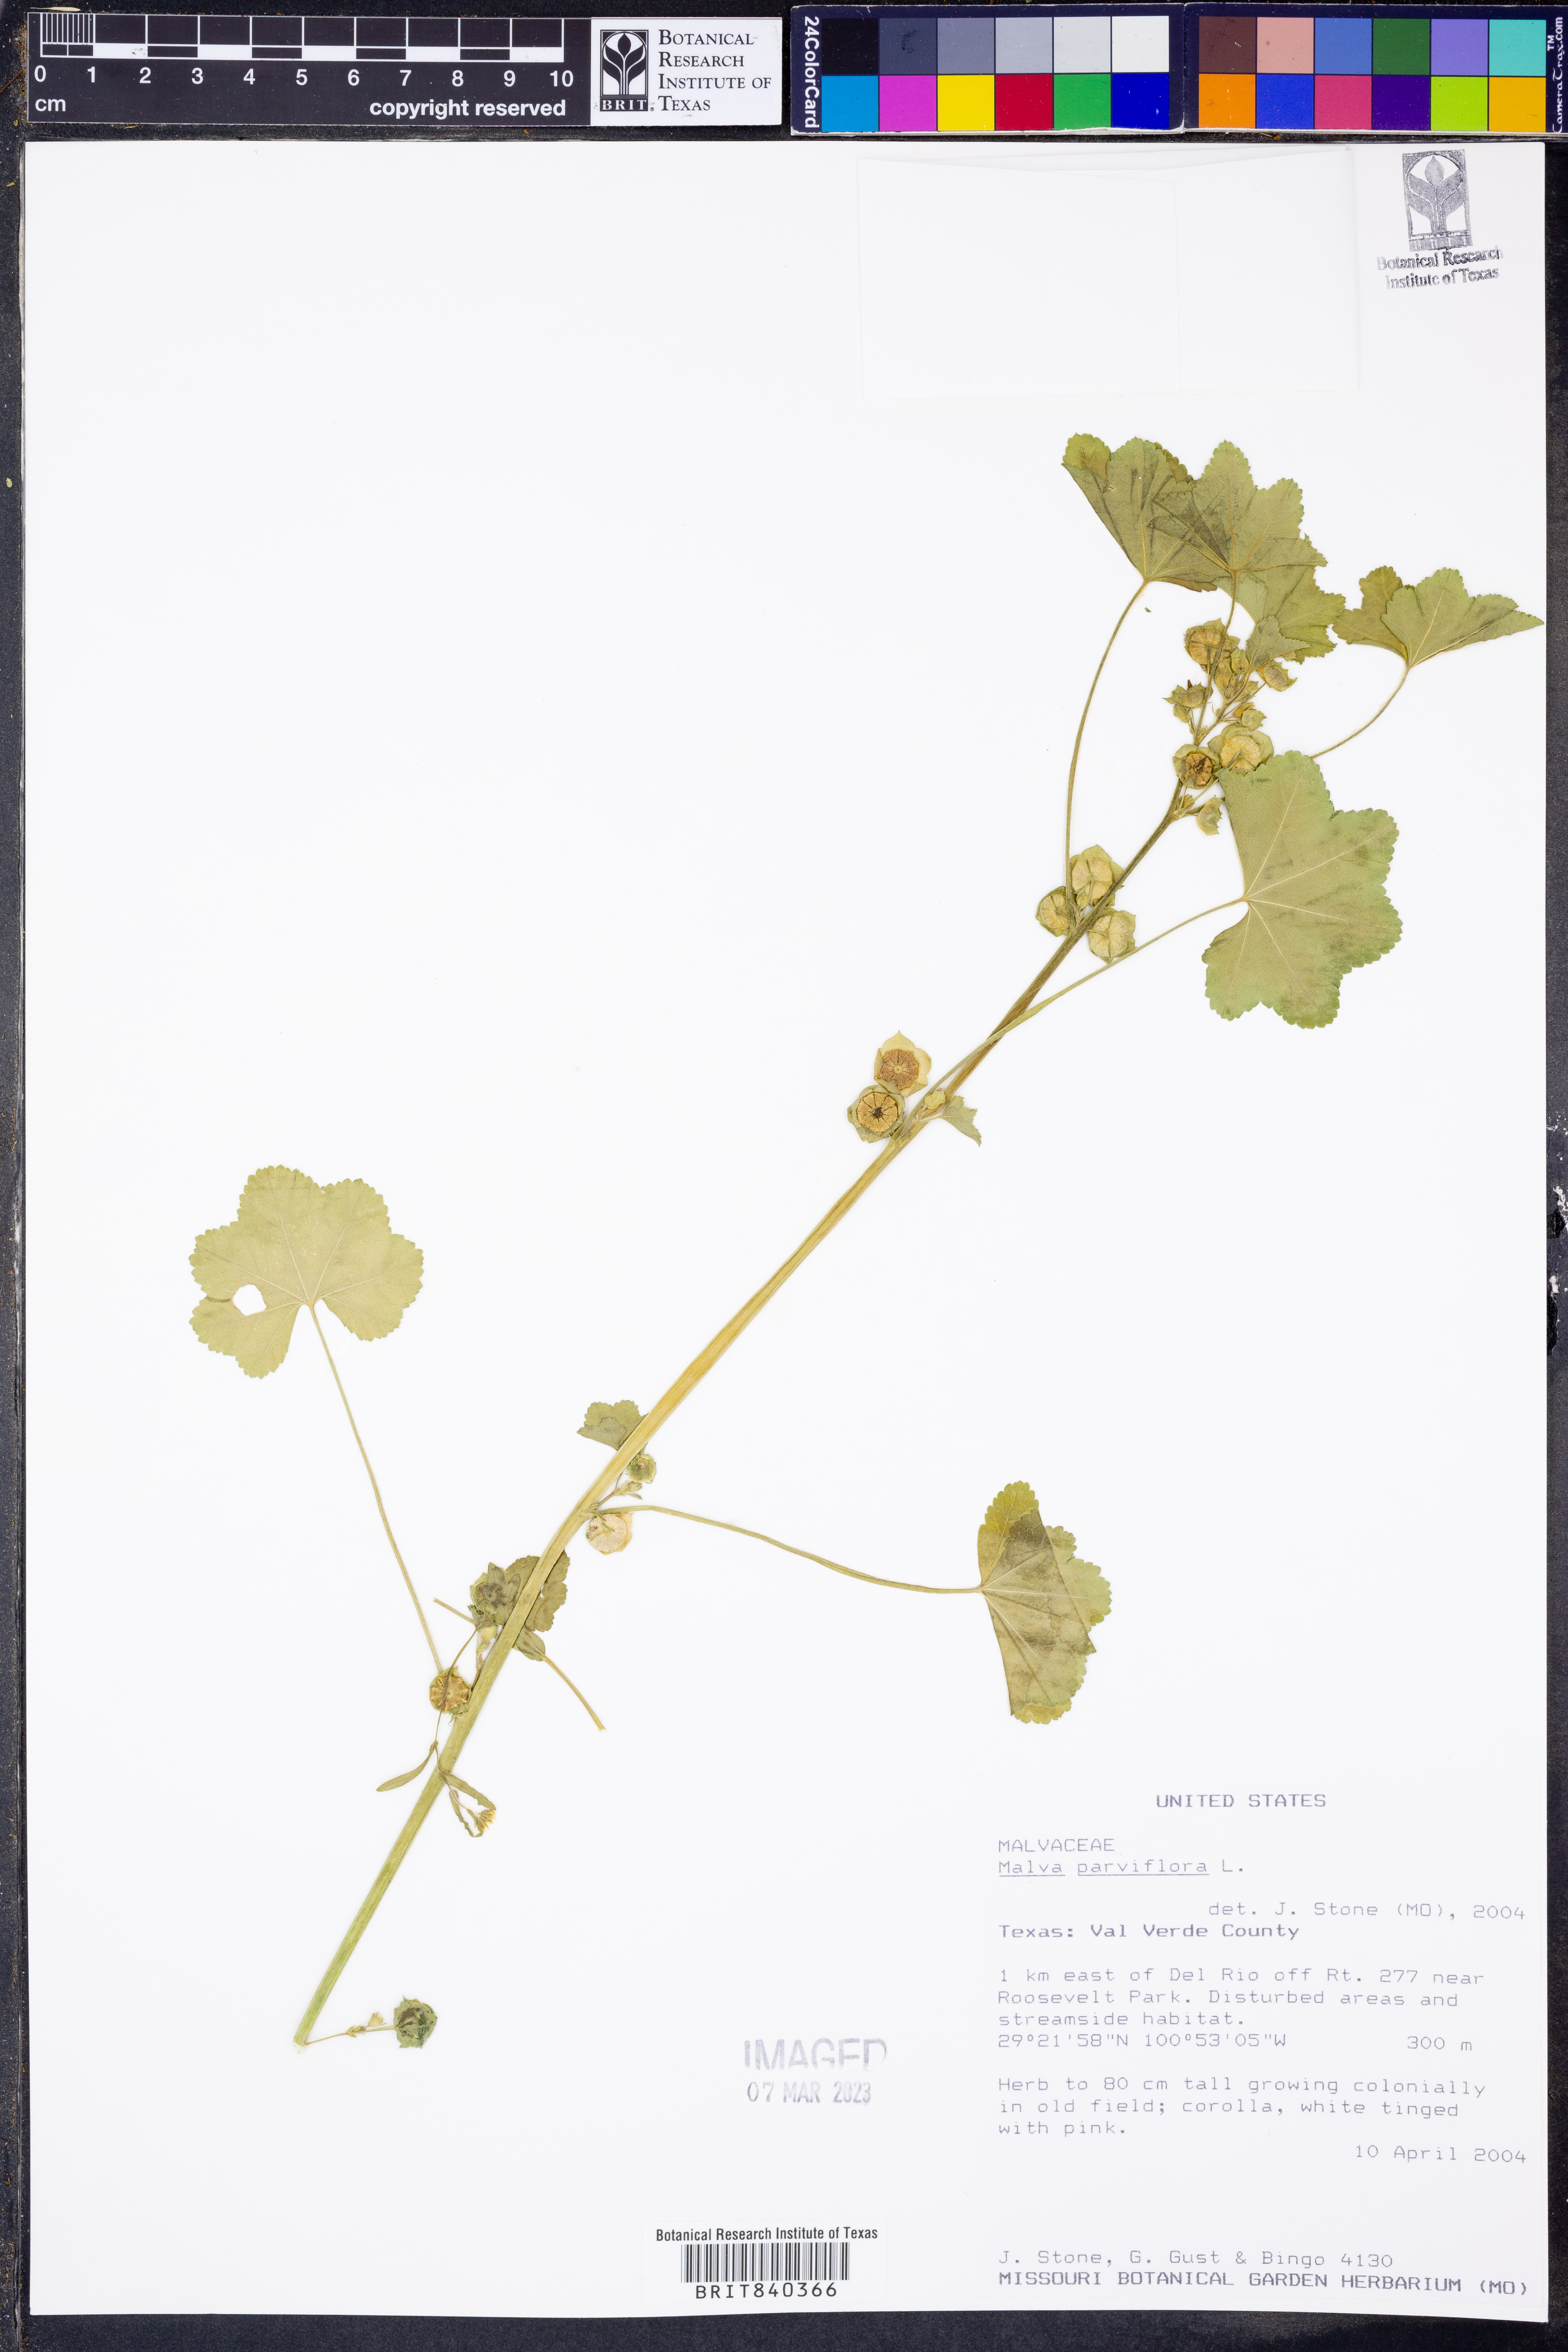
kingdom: Plantae
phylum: Tracheophyta
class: Magnoliopsida
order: Malvales
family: Malvaceae
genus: Malva
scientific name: Malva parviflora
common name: Least mallow
